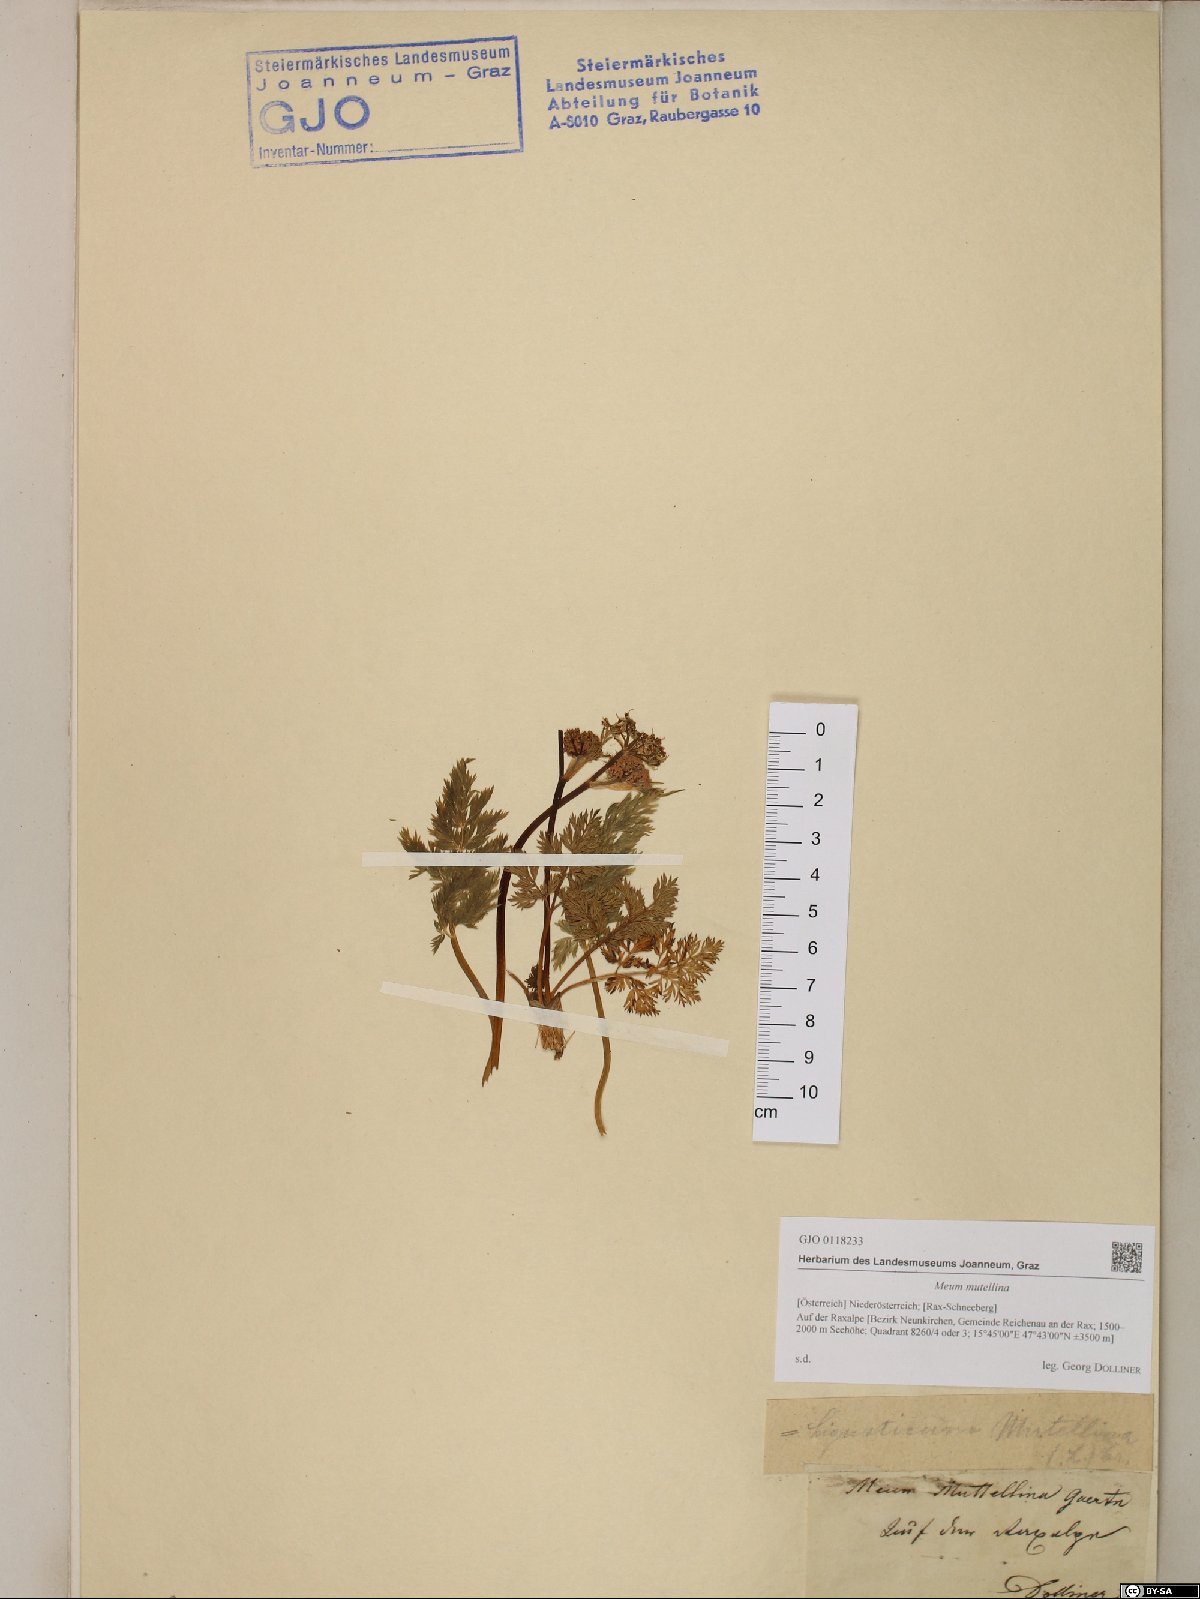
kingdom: Plantae
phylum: Tracheophyta
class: Magnoliopsida
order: Apiales
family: Apiaceae
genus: Mutellina
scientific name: Mutellina adonidifolia
